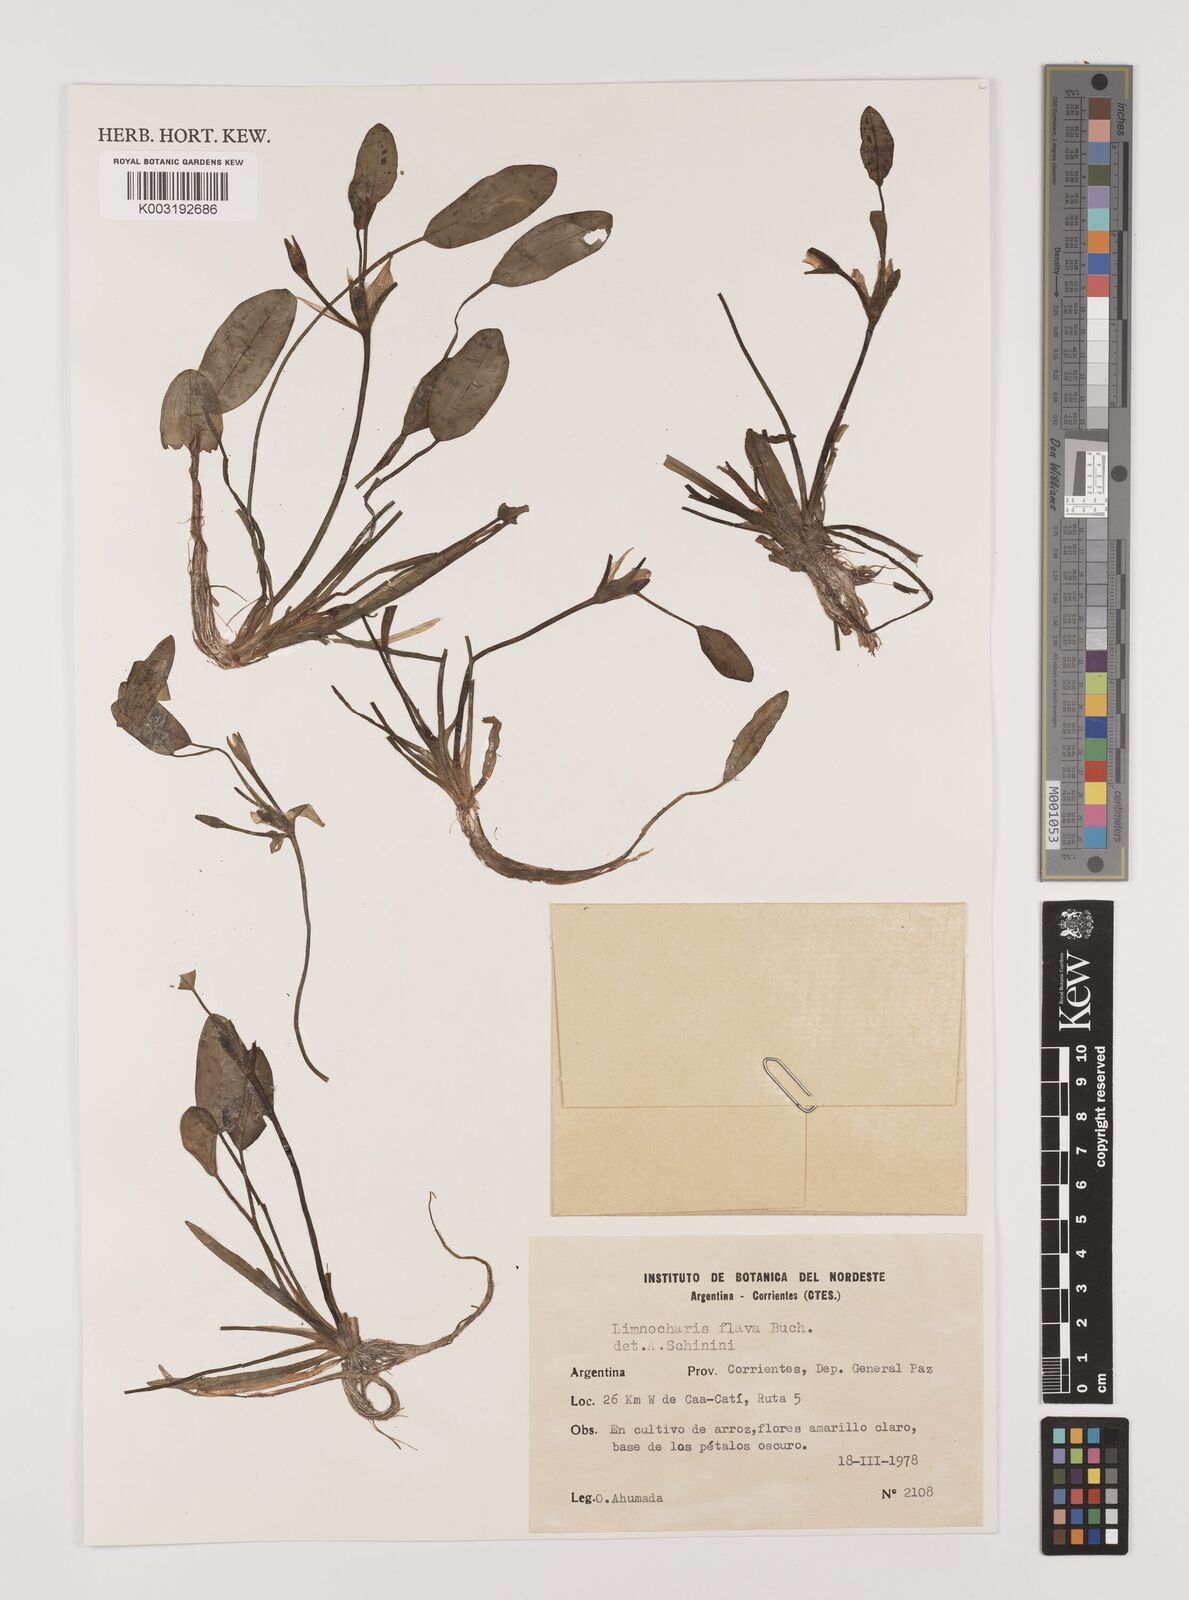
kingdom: Plantae
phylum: Tracheophyta
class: Liliopsida
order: Alismatales
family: Alismataceae
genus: Limnocharis
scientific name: Limnocharis flava
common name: Sawah-flower-rush
